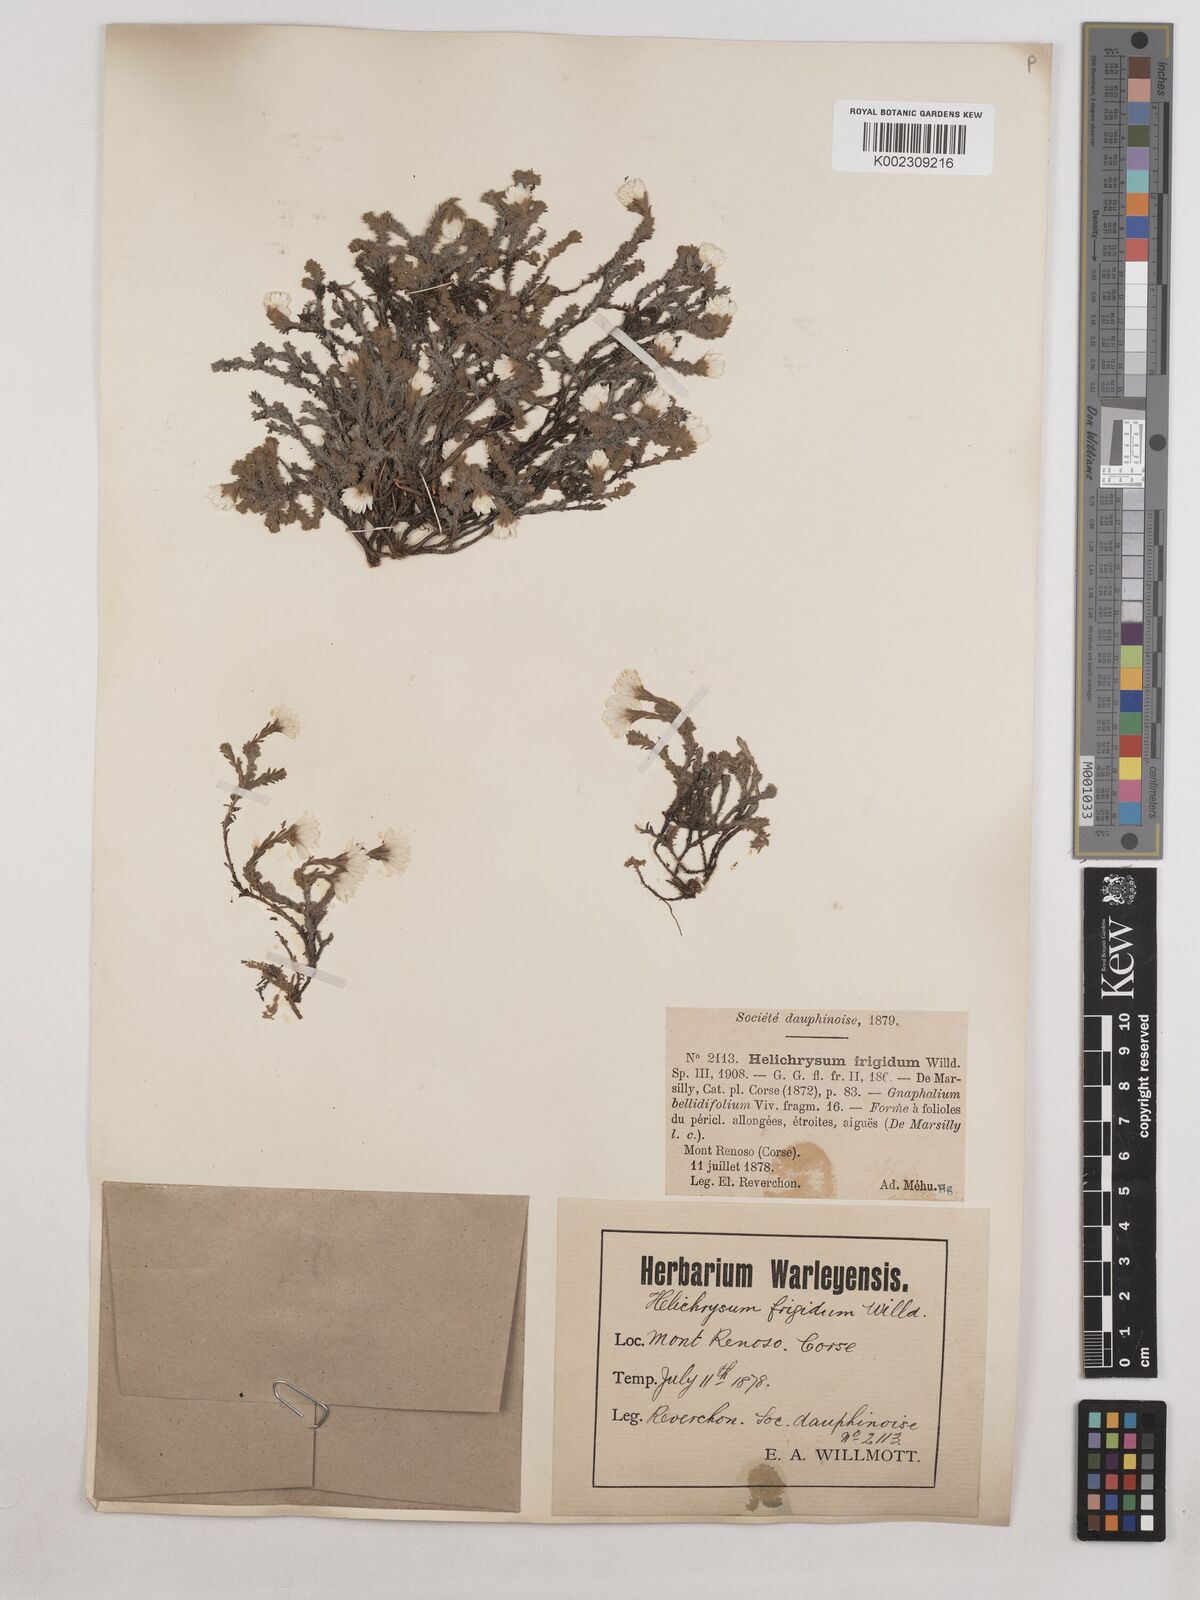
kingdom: Plantae
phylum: Tracheophyta
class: Magnoliopsida
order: Asterales
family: Asteraceae
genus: Castroviejoa
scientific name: Castroviejoa frigida
